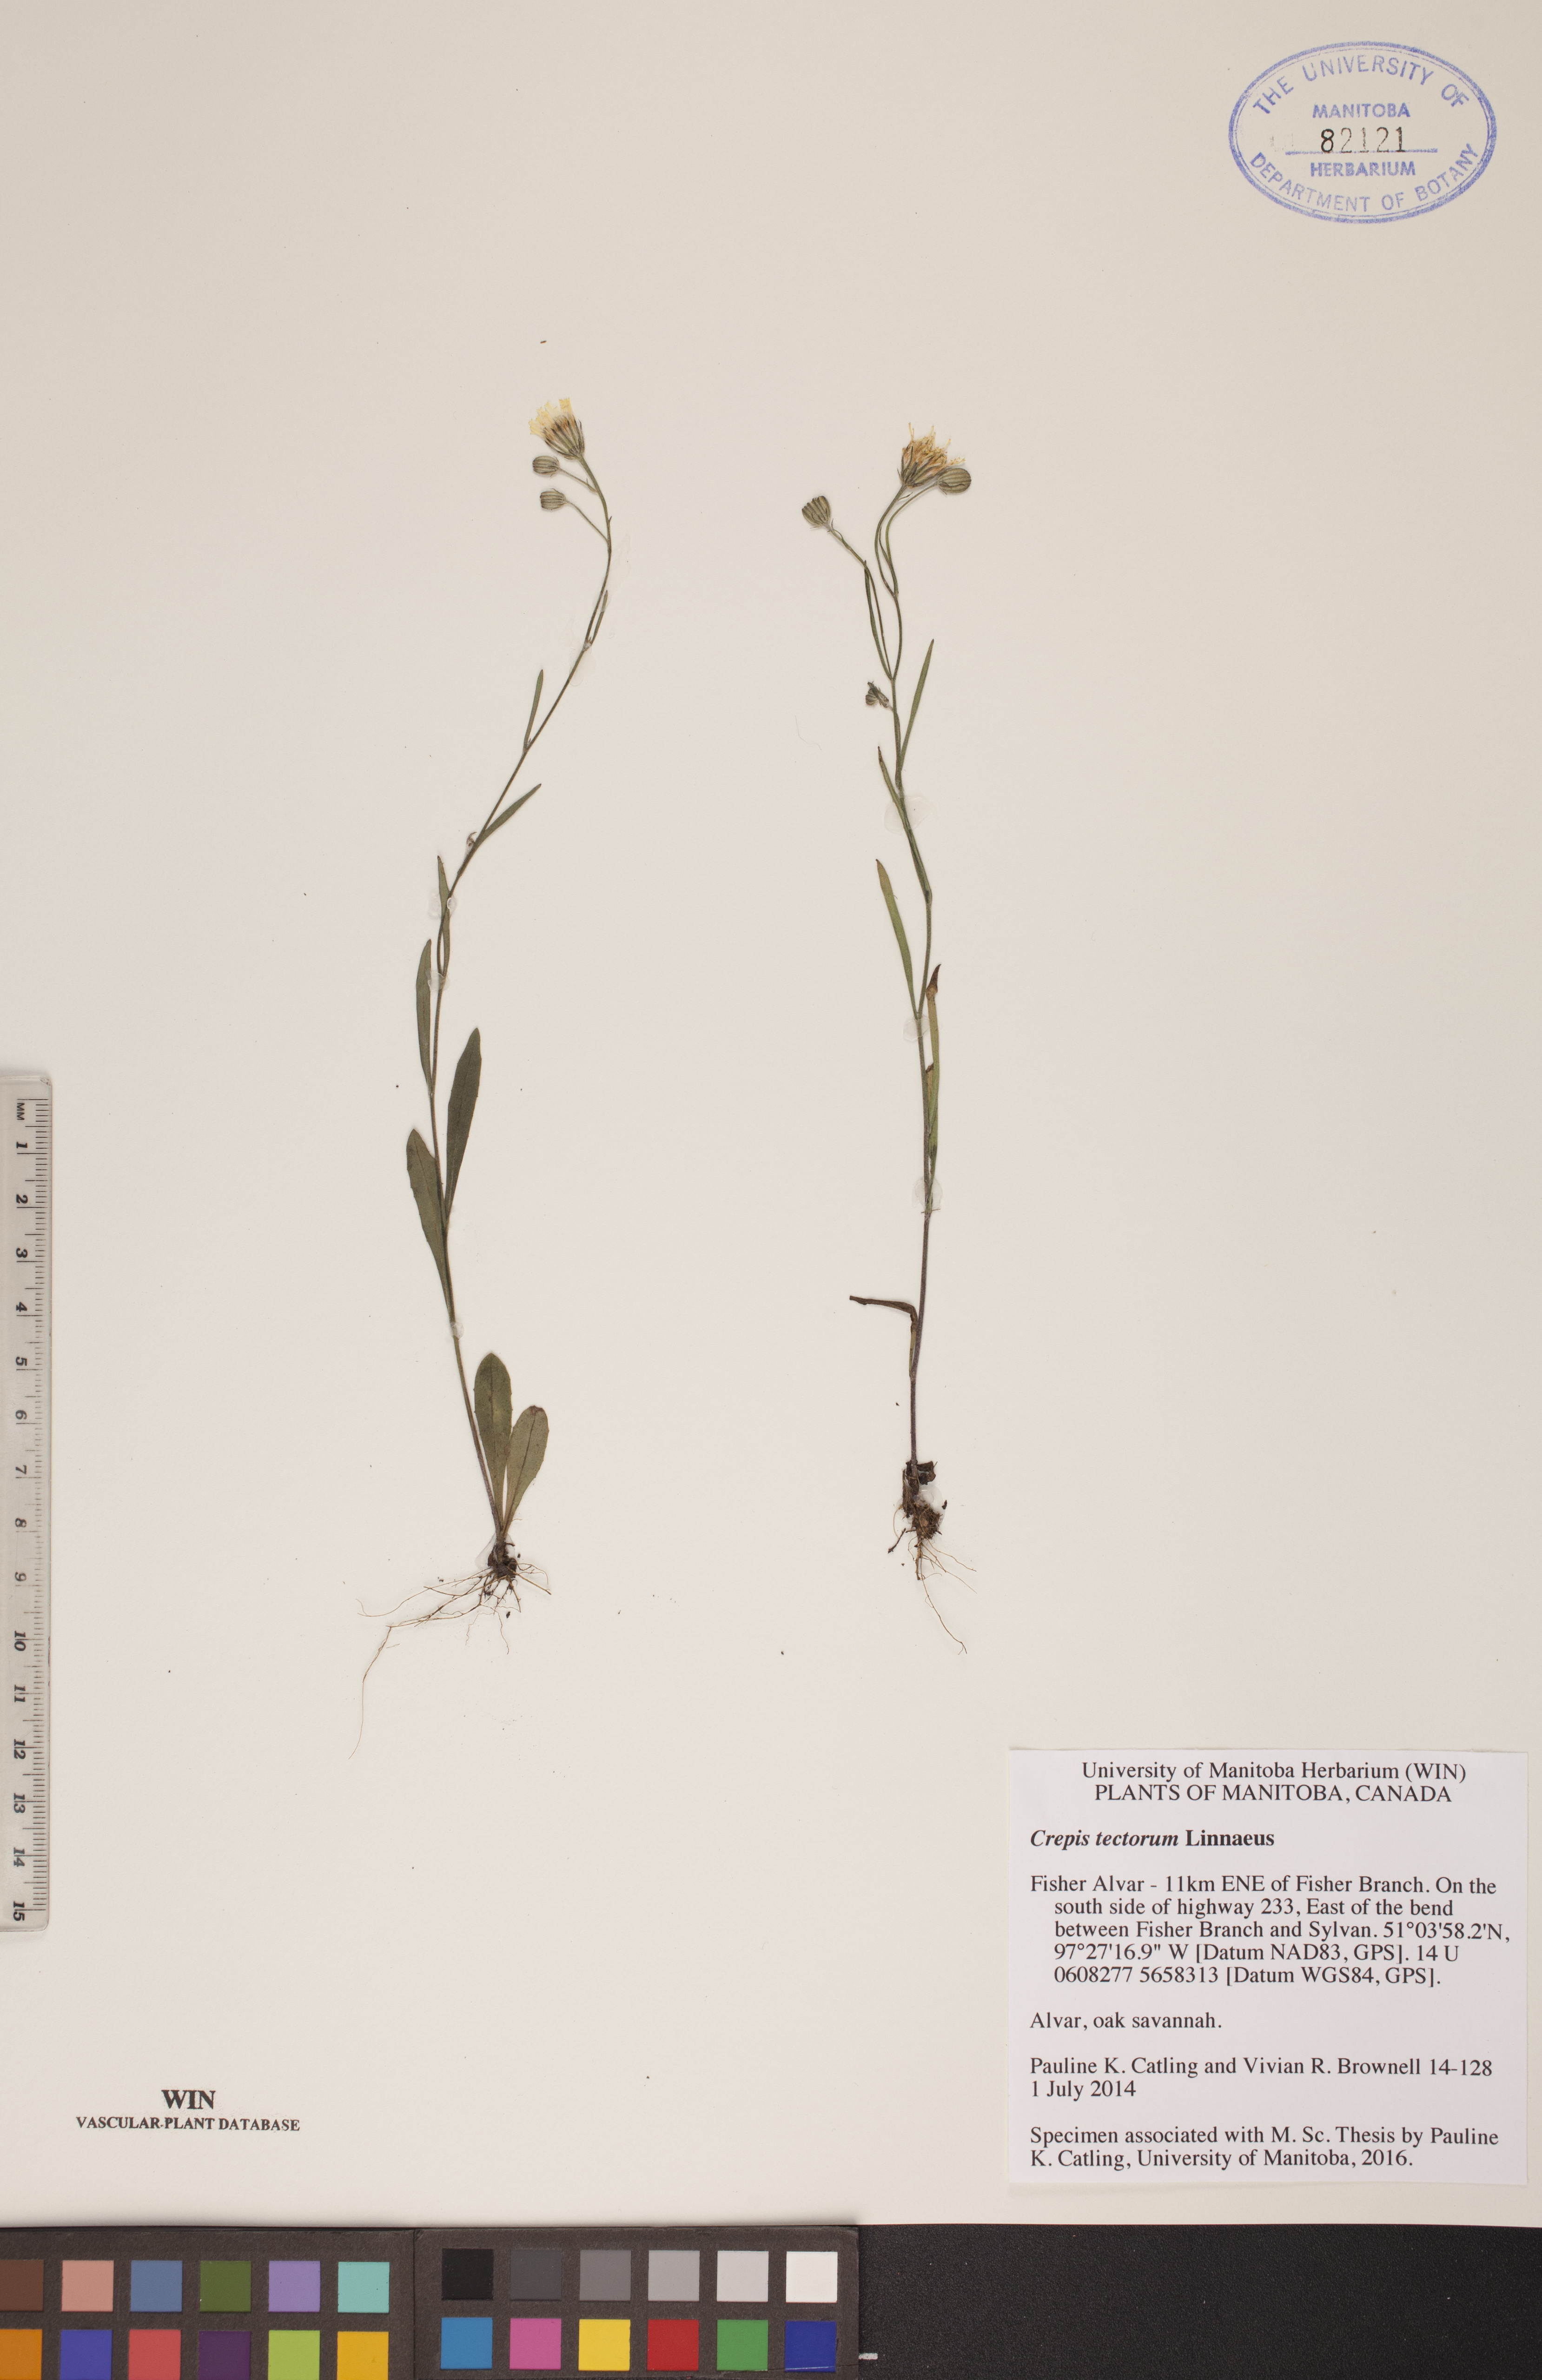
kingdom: Plantae
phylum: Tracheophyta
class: Magnoliopsida
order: Asterales
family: Asteraceae
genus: Crepis
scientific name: Crepis tectorum
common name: Narrow-leaved hawk's-beard
